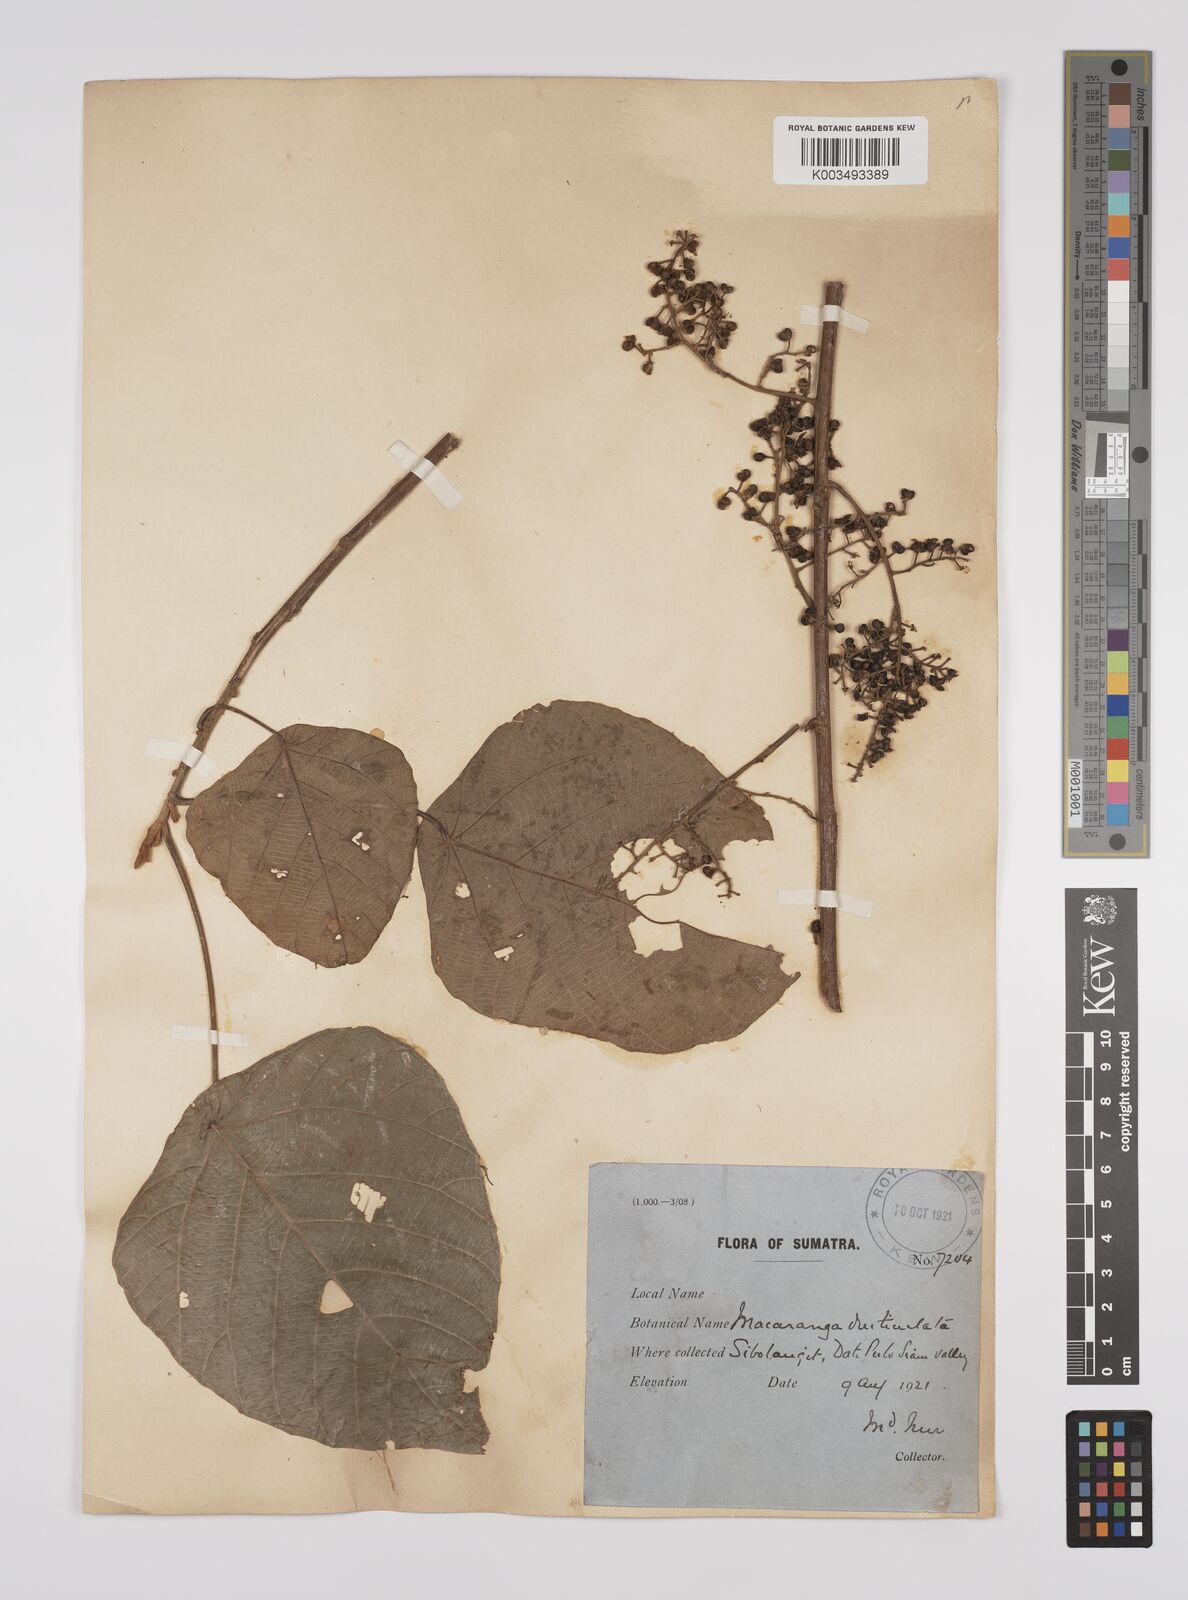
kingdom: Plantae
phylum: Tracheophyta
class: Magnoliopsida
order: Malpighiales
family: Euphorbiaceae
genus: Macaranga
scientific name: Macaranga denticulata
